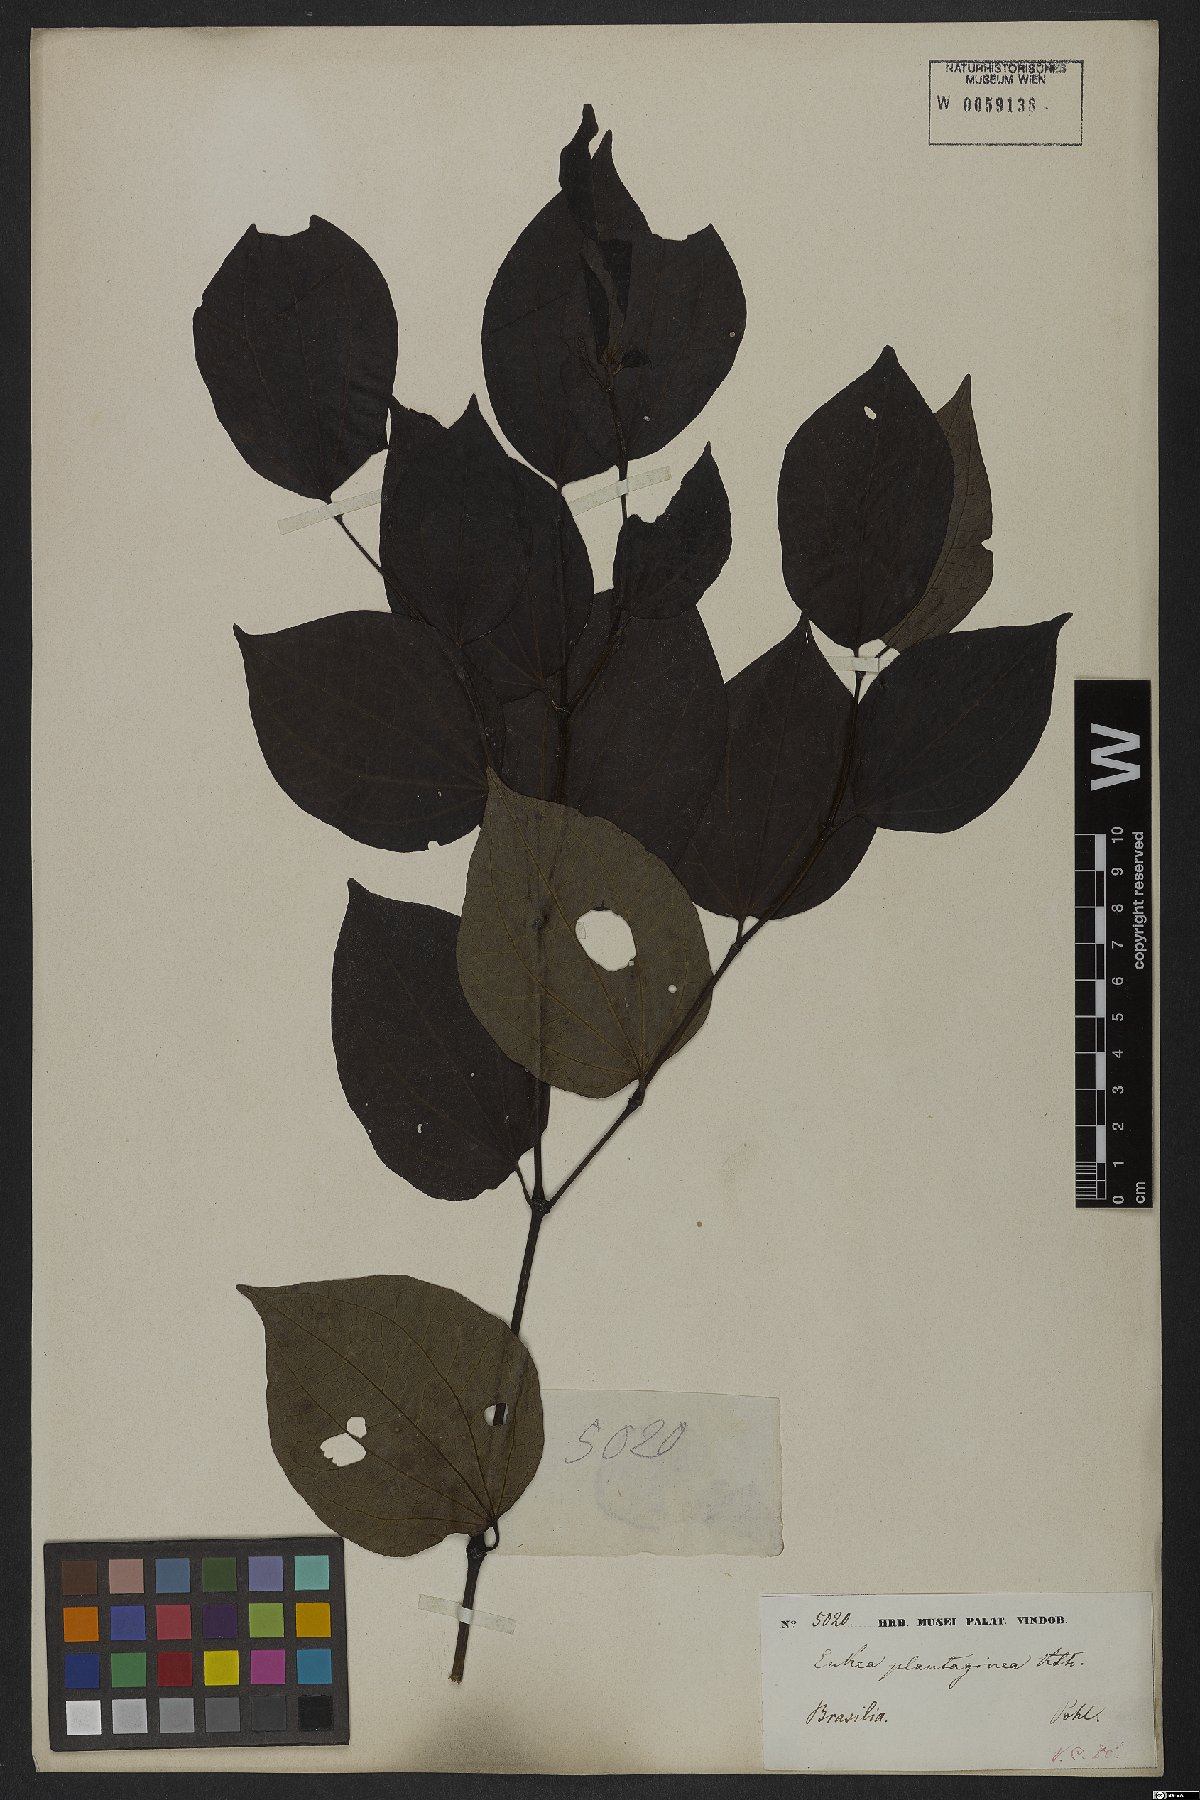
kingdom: Plantae
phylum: Tracheophyta
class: Magnoliopsida
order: Piperales
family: Piperaceae
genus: Piper
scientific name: Piper amalago
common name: Pepper-elder
